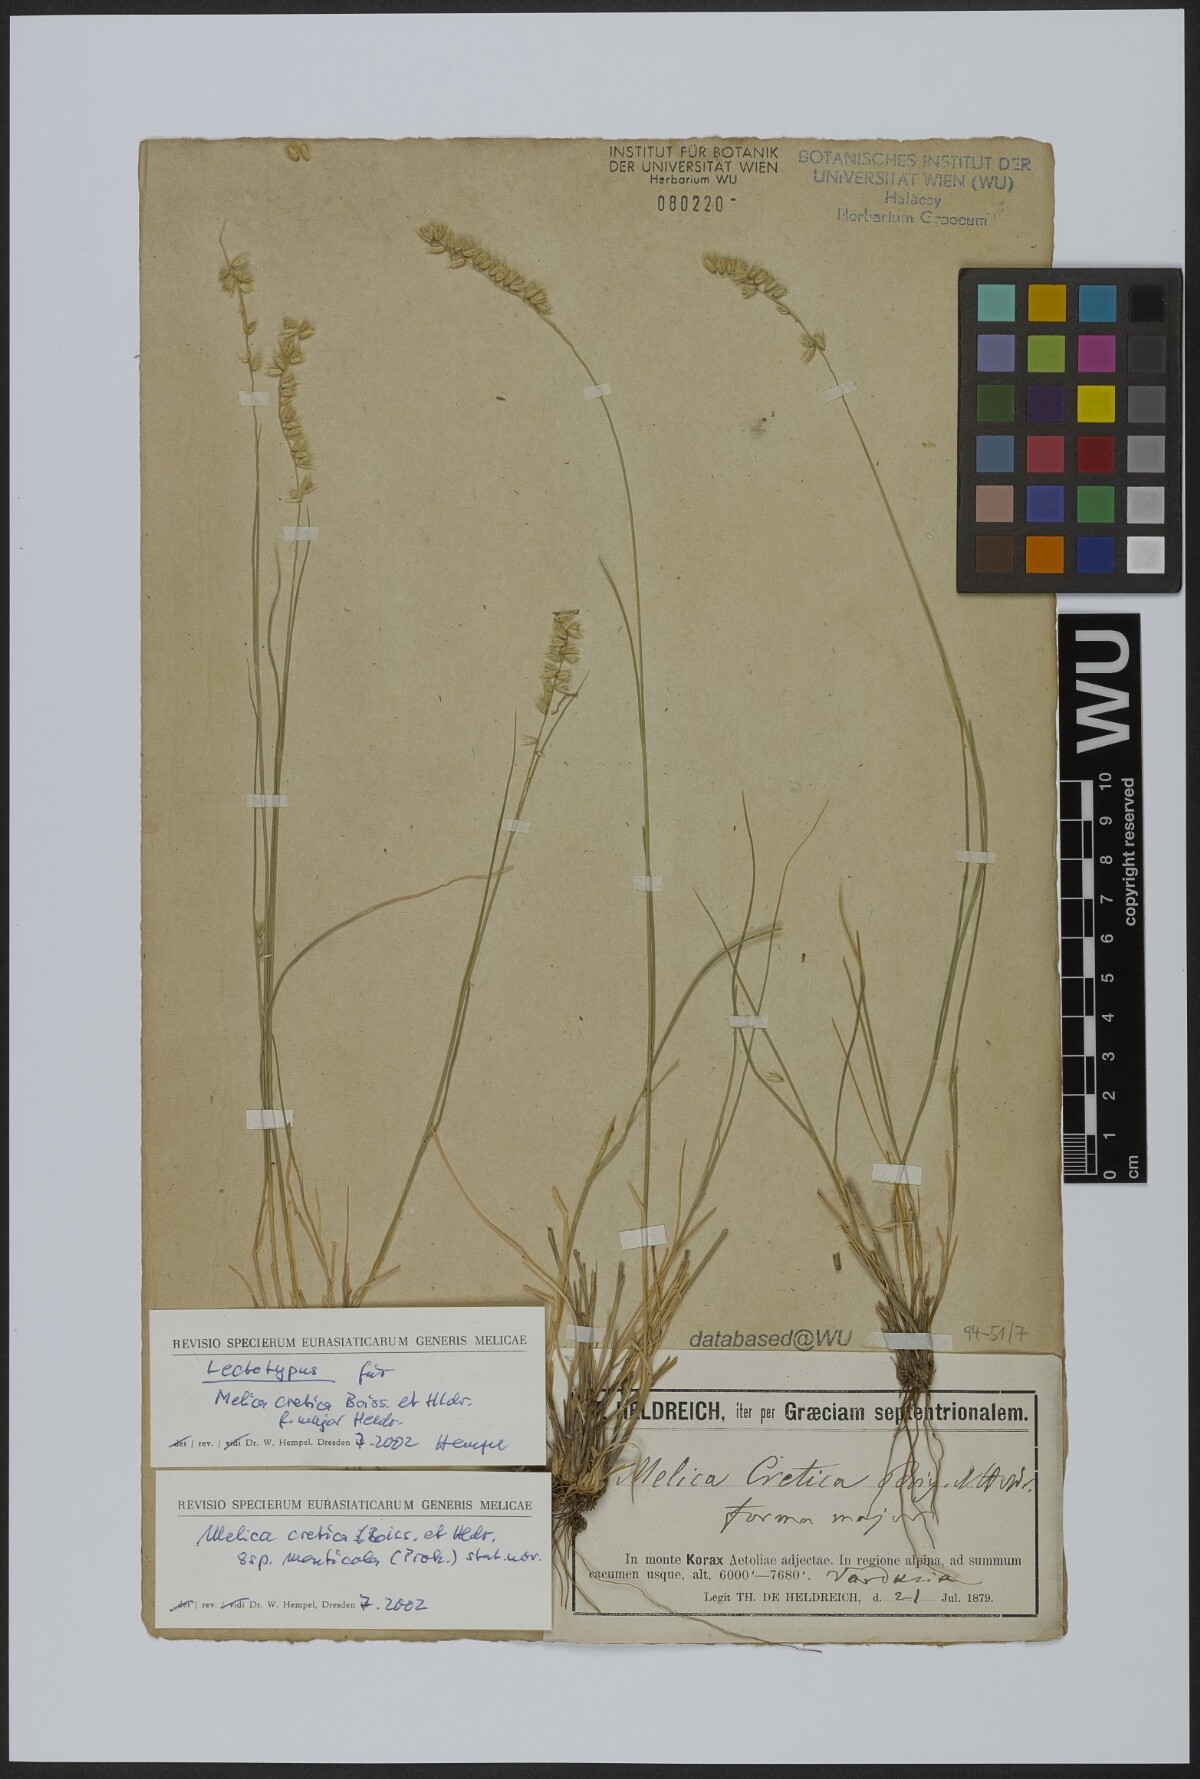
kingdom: Plantae
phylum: Tracheophyta
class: Liliopsida
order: Poales
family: Poaceae
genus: Melica
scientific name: Melica ciliata
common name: Hairy melicgrass
